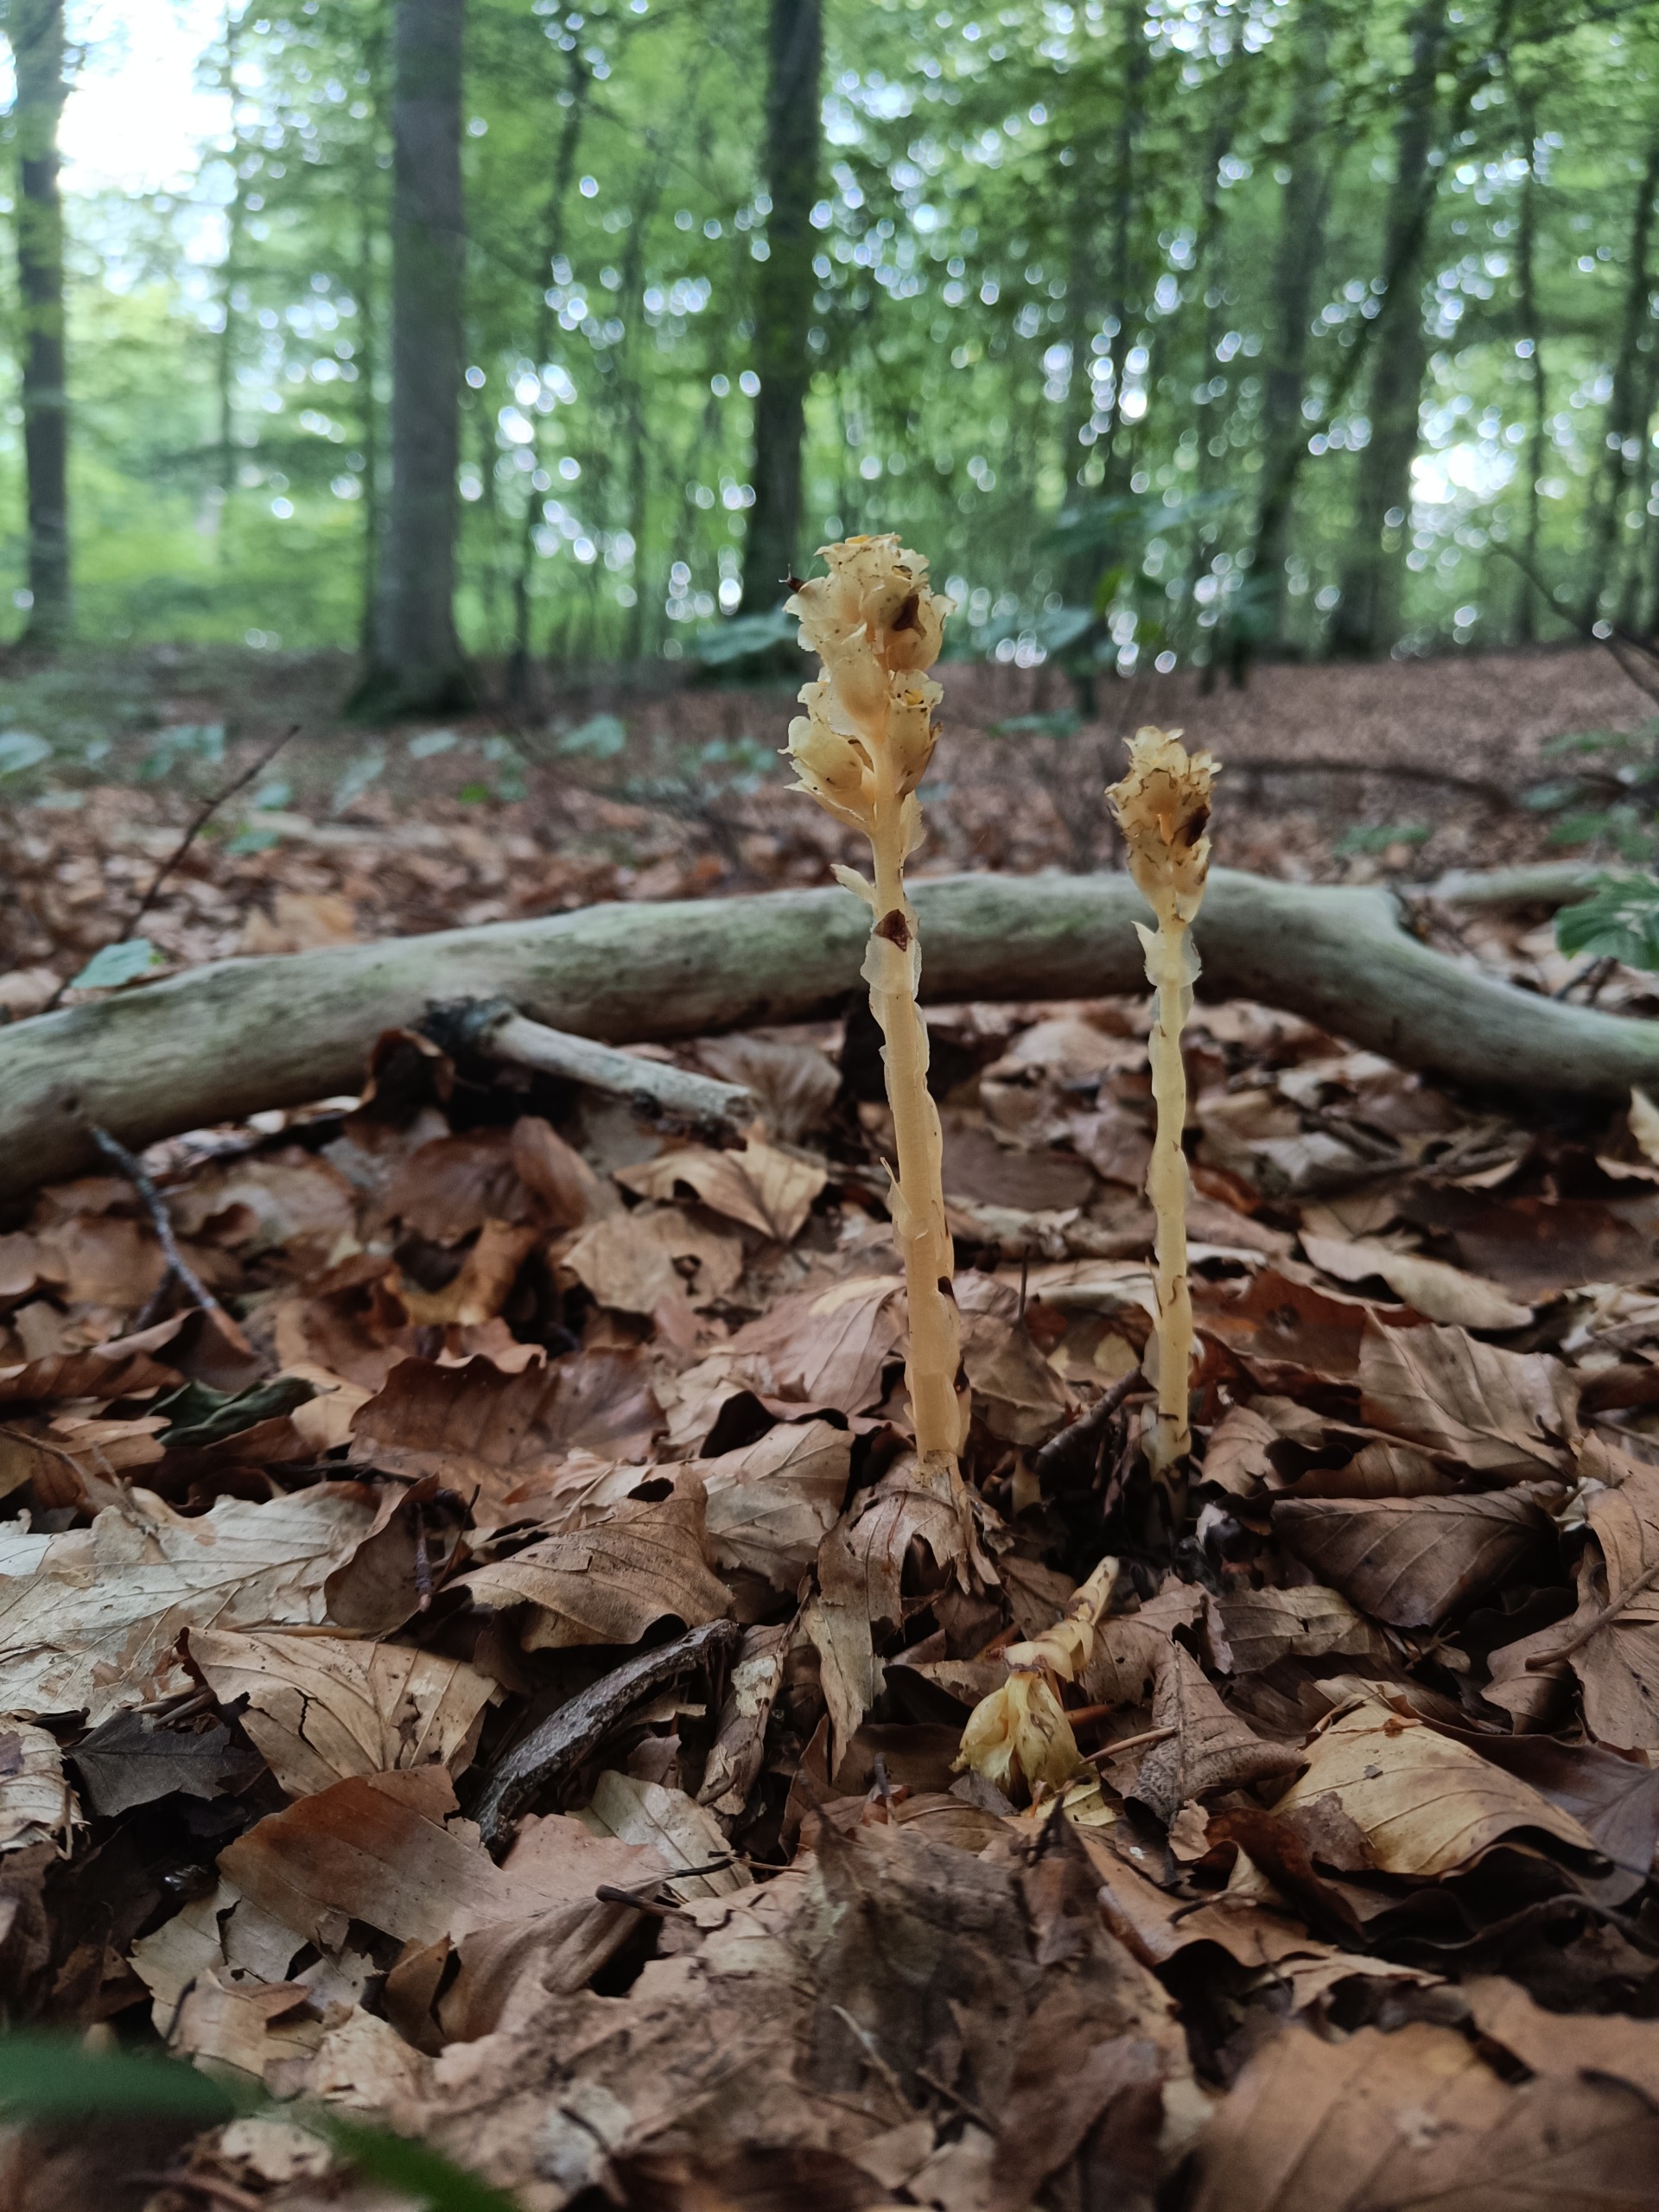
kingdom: Plantae
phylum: Tracheophyta
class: Magnoliopsida
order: Ericales
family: Ericaceae
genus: Hypopitys
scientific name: Hypopitys monotropa
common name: Snylterod
